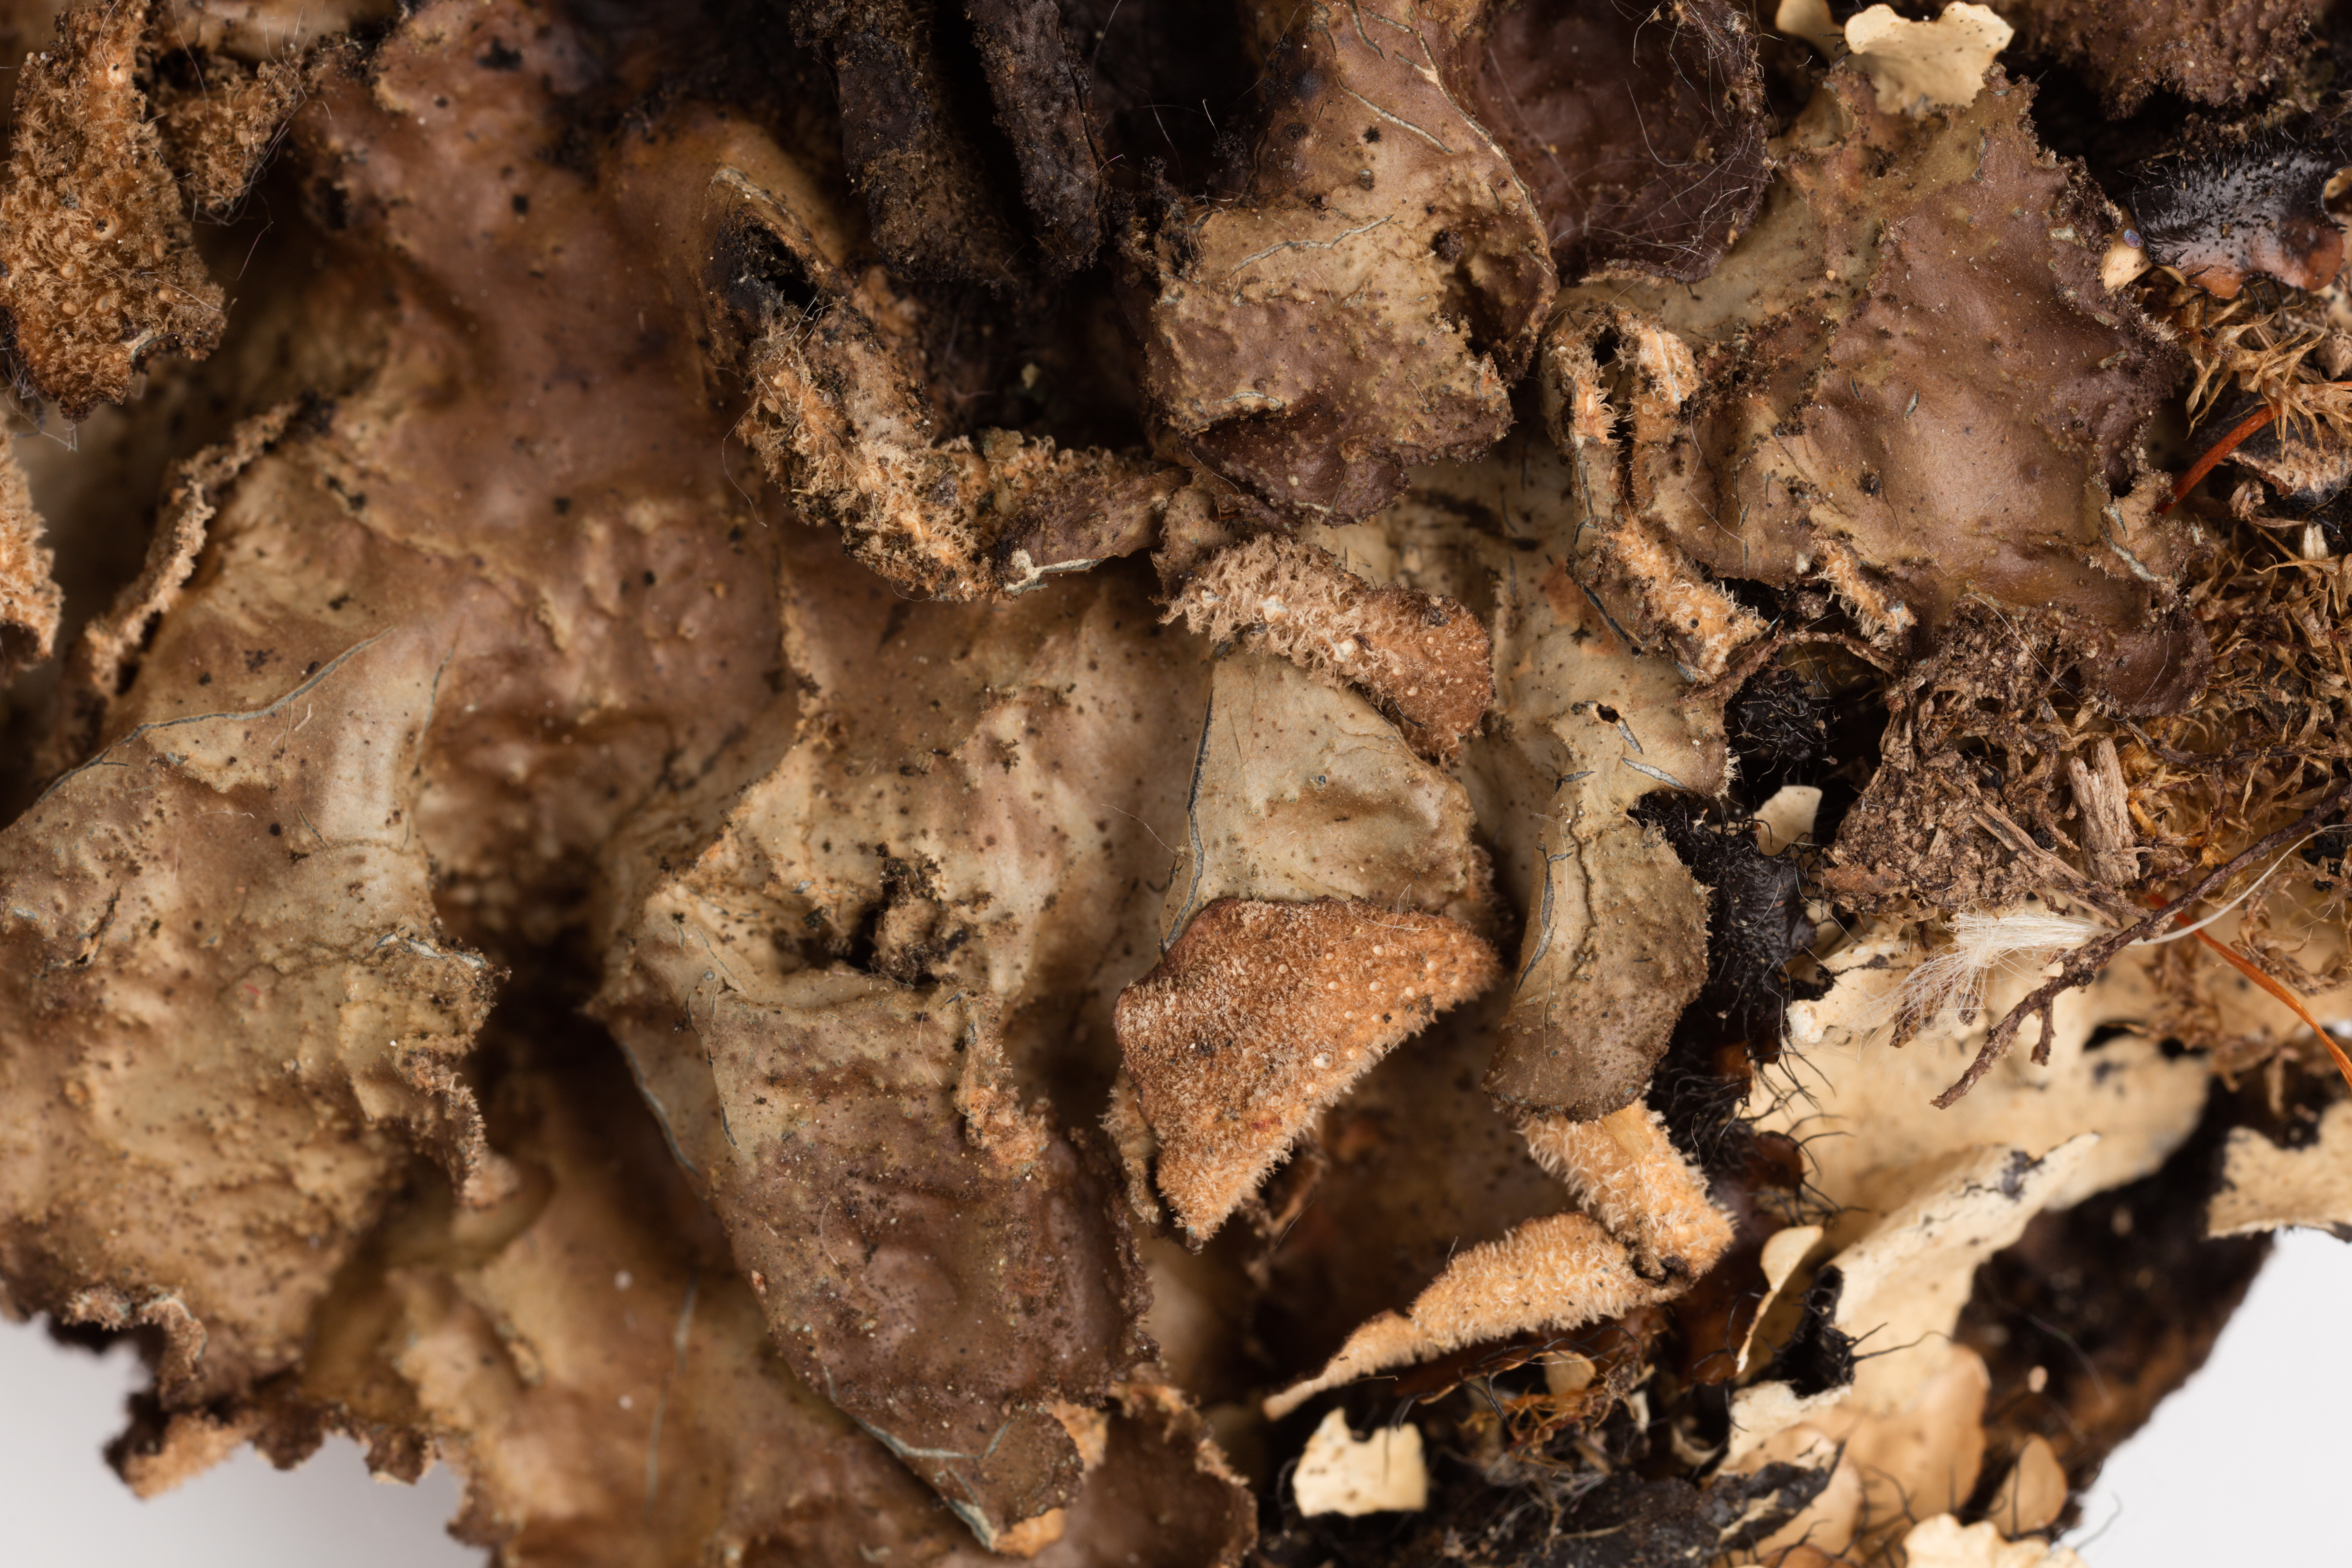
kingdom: Fungi
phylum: Ascomycota
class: Lecanoromycetes
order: Peltigerales
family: Lobariaceae
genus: Sticta
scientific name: Sticta fuliginosa
